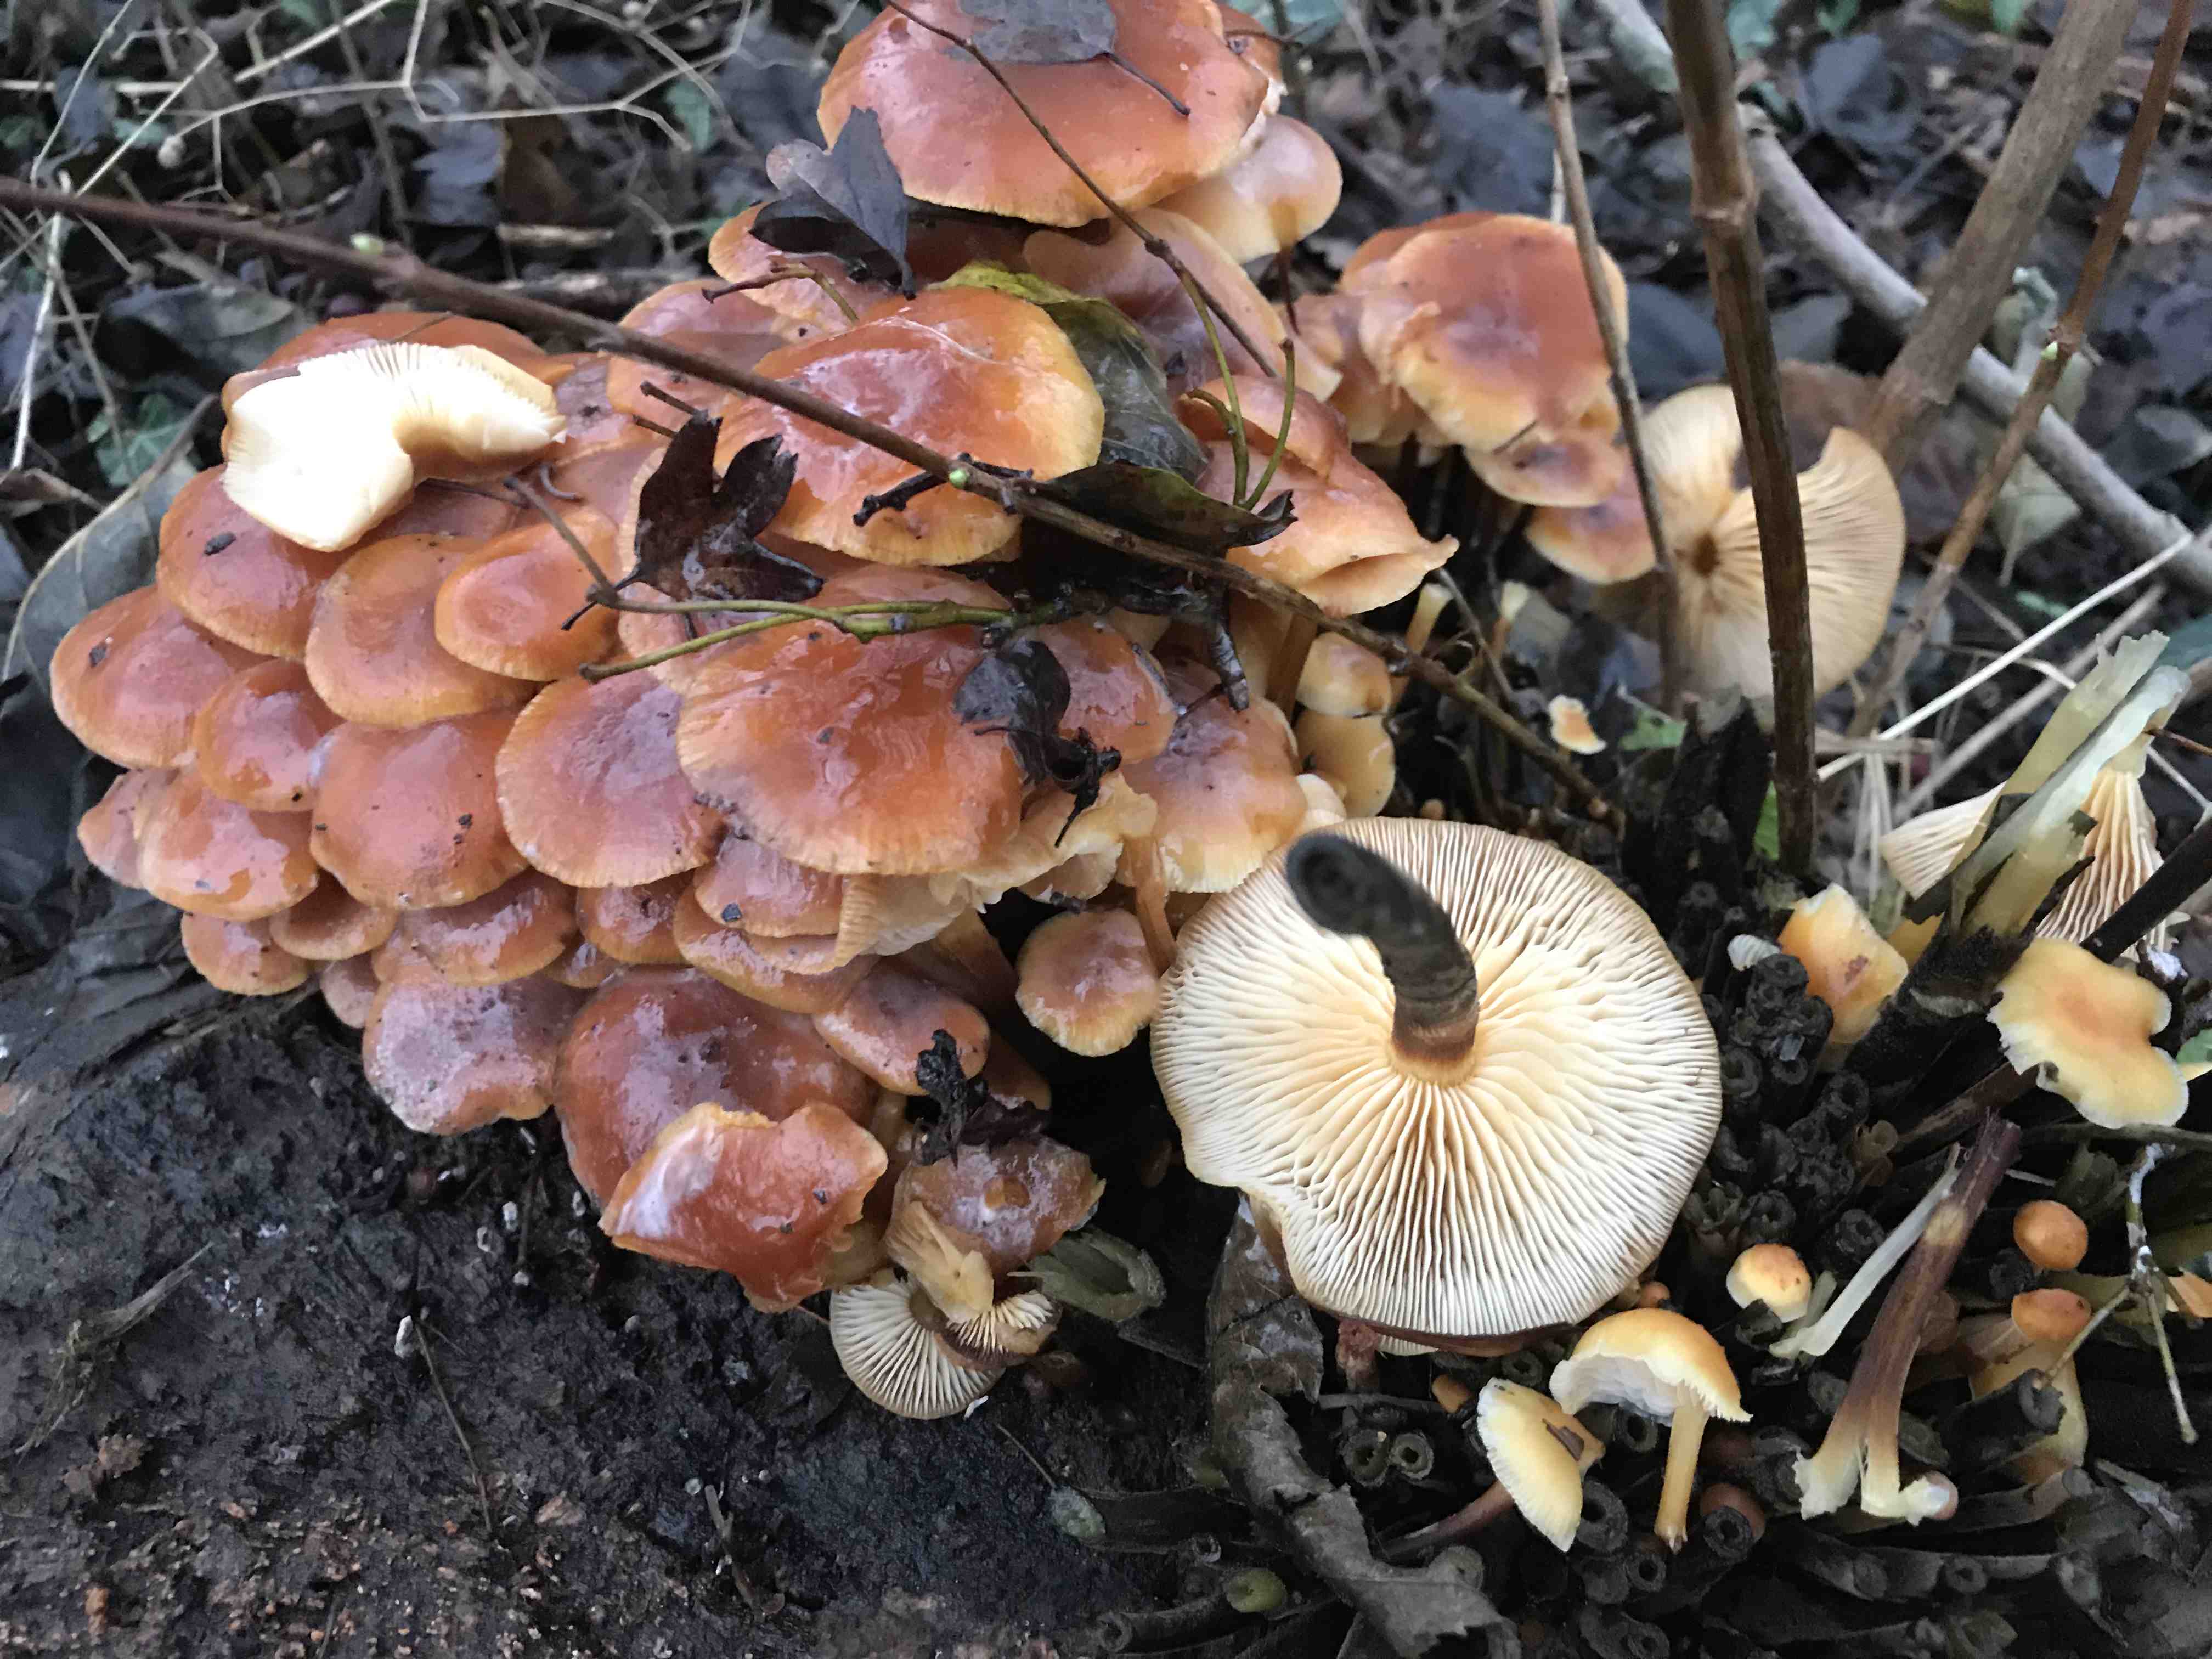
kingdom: Fungi
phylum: Basidiomycota
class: Agaricomycetes
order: Agaricales
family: Physalacriaceae
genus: Flammulina
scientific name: Flammulina velutipes
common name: gul fløjlsfod
